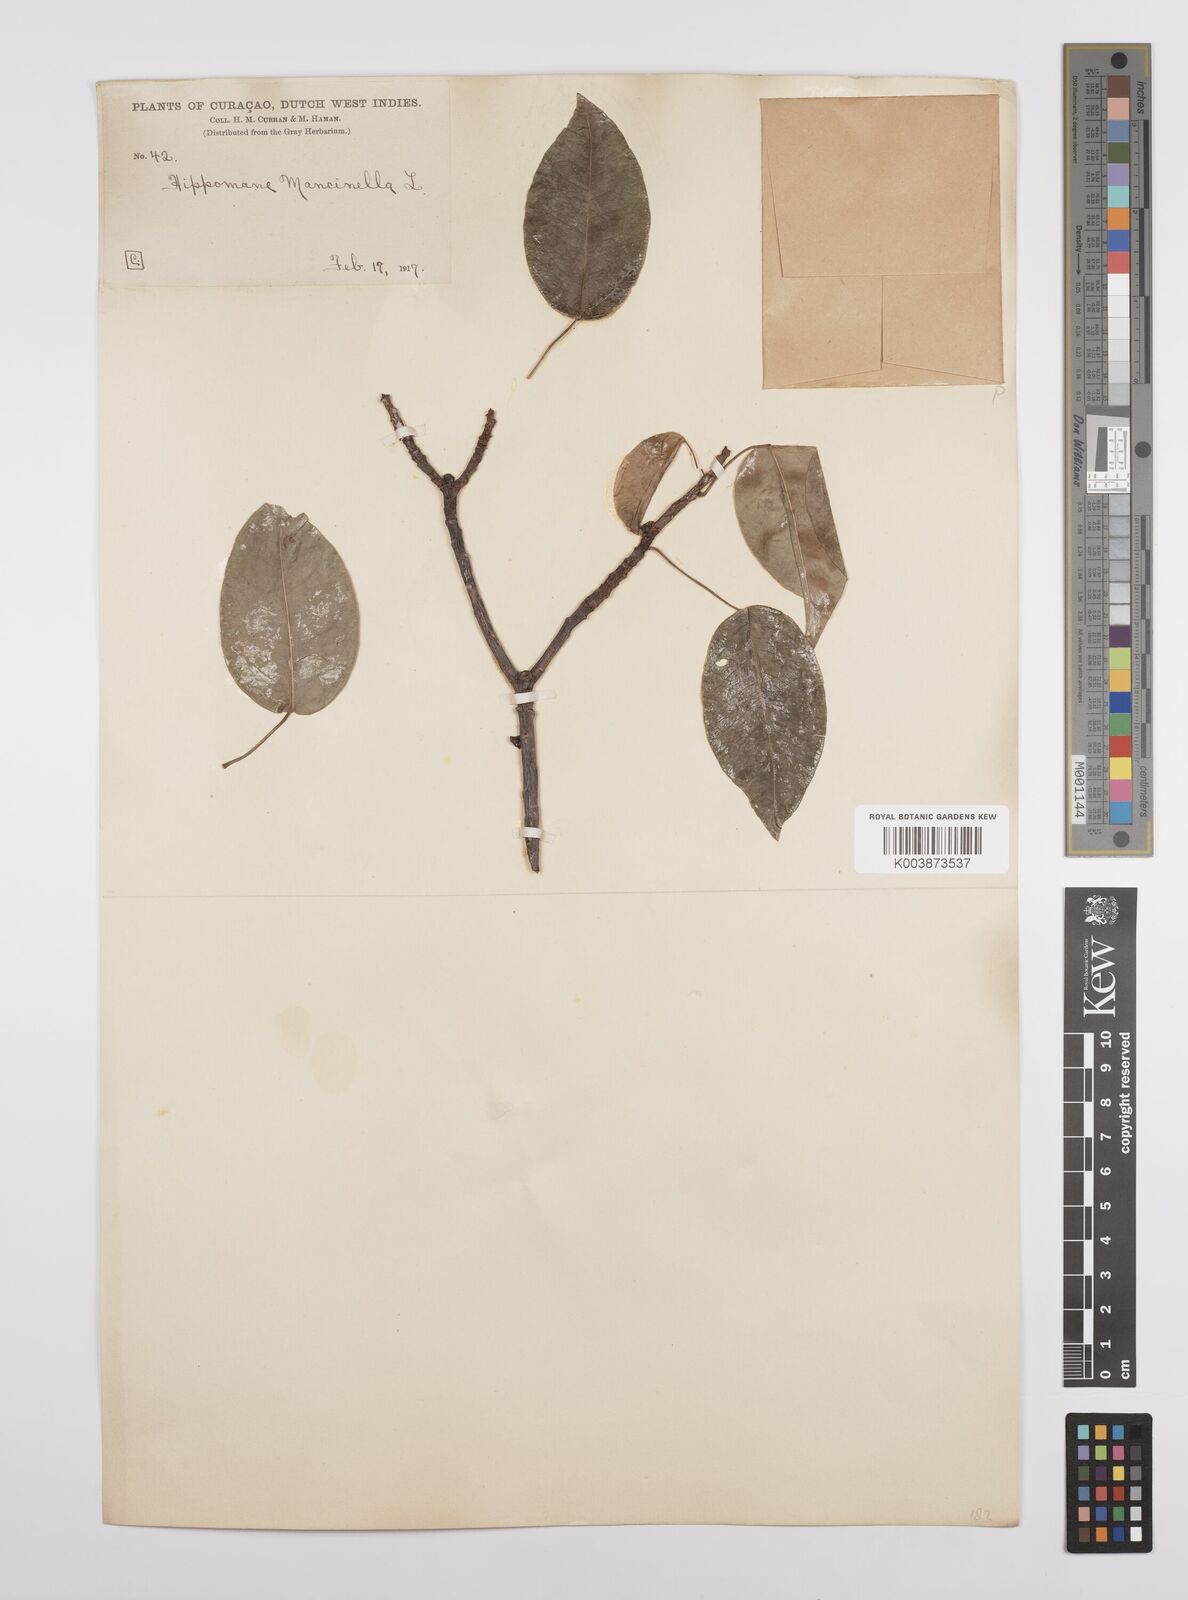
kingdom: Plantae
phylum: Tracheophyta
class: Magnoliopsida
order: Malpighiales
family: Euphorbiaceae
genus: Hippomane
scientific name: Hippomane mancinella
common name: Manchineel
